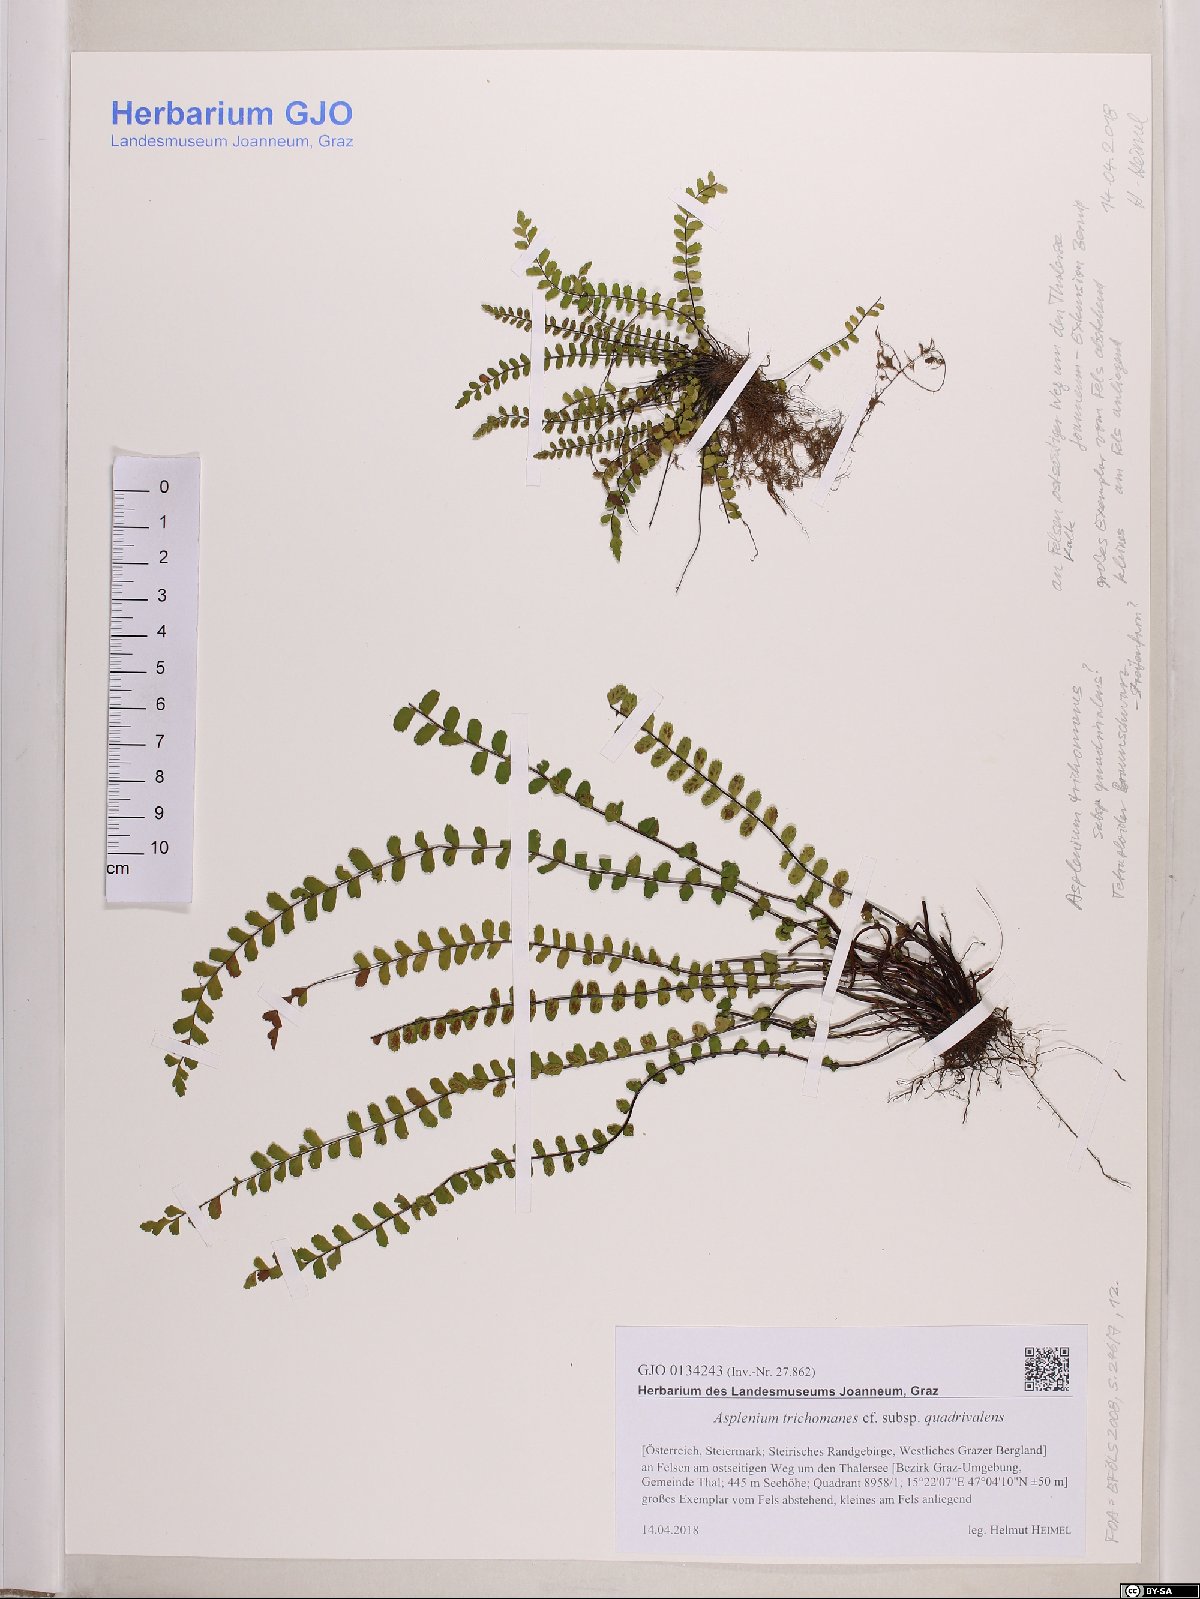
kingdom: Plantae
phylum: Tracheophyta
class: Polypodiopsida
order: Polypodiales
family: Aspleniaceae
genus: Asplenium
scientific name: Asplenium quadrivalens
